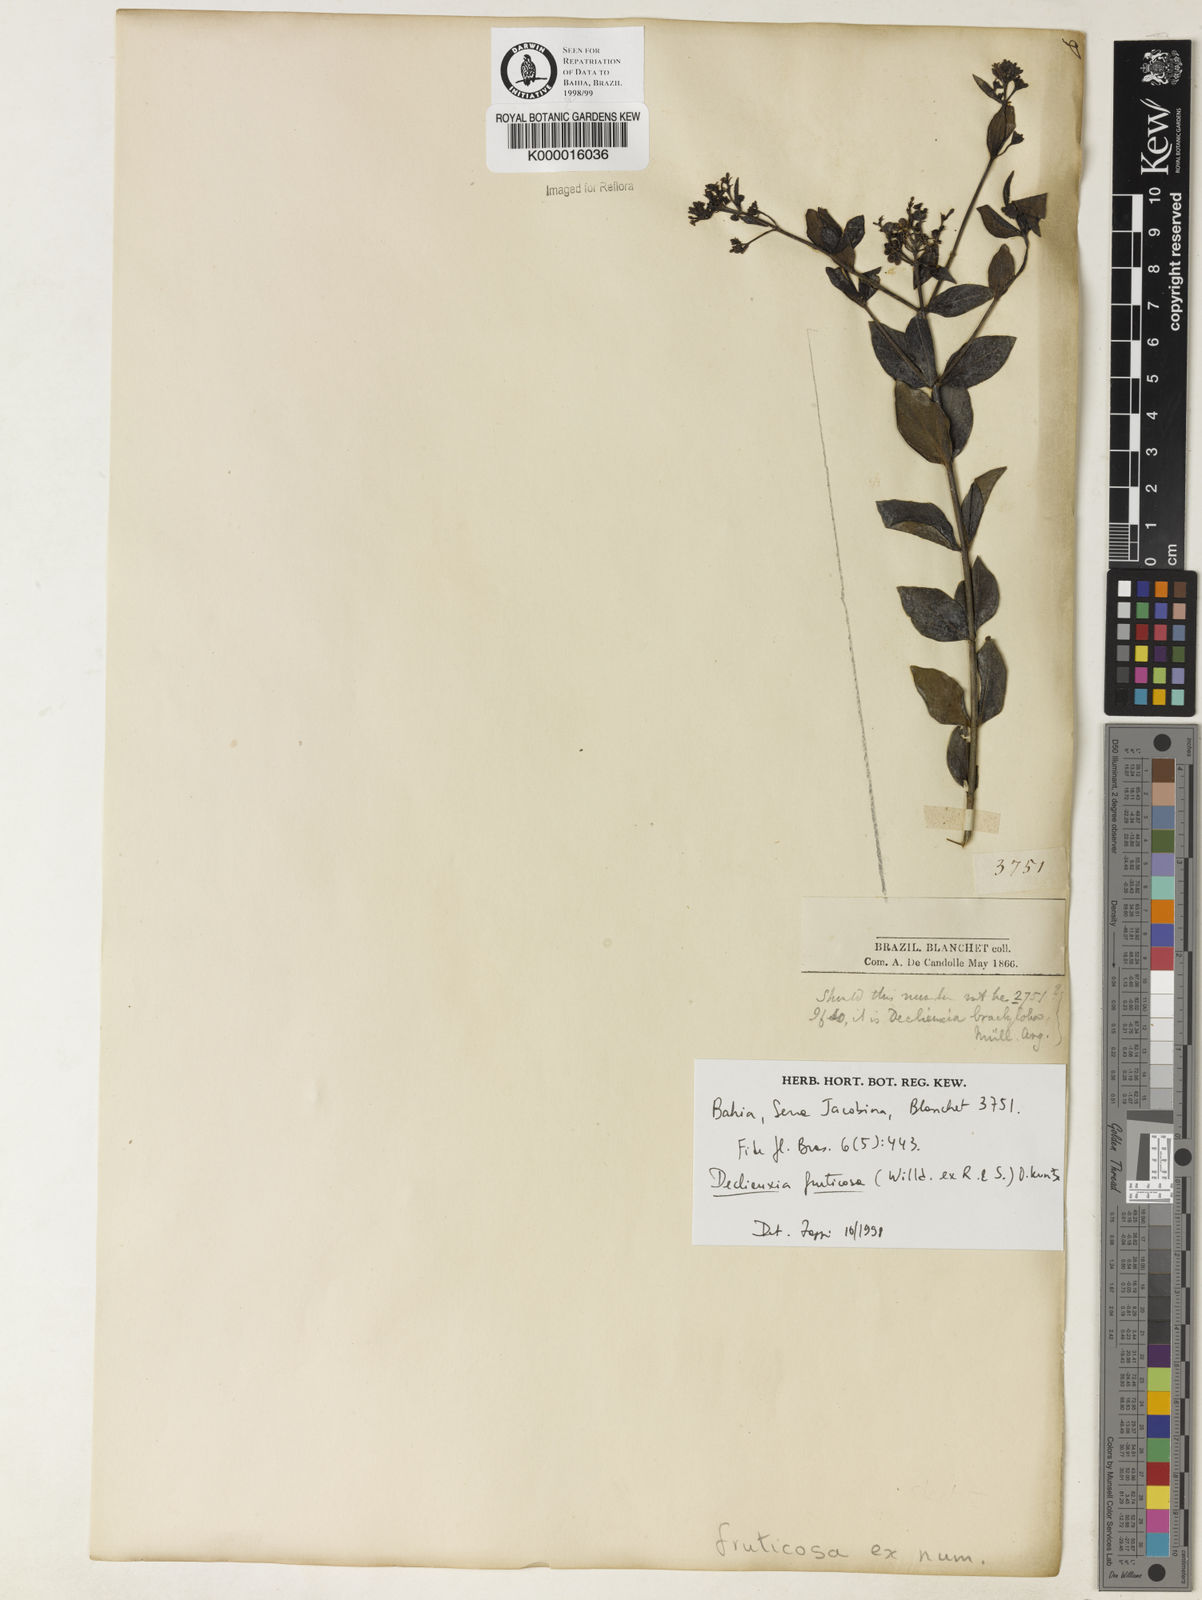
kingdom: Plantae
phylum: Tracheophyta
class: Magnoliopsida
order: Gentianales
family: Rubiaceae
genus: Declieuxia
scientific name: Declieuxia fruticosa
